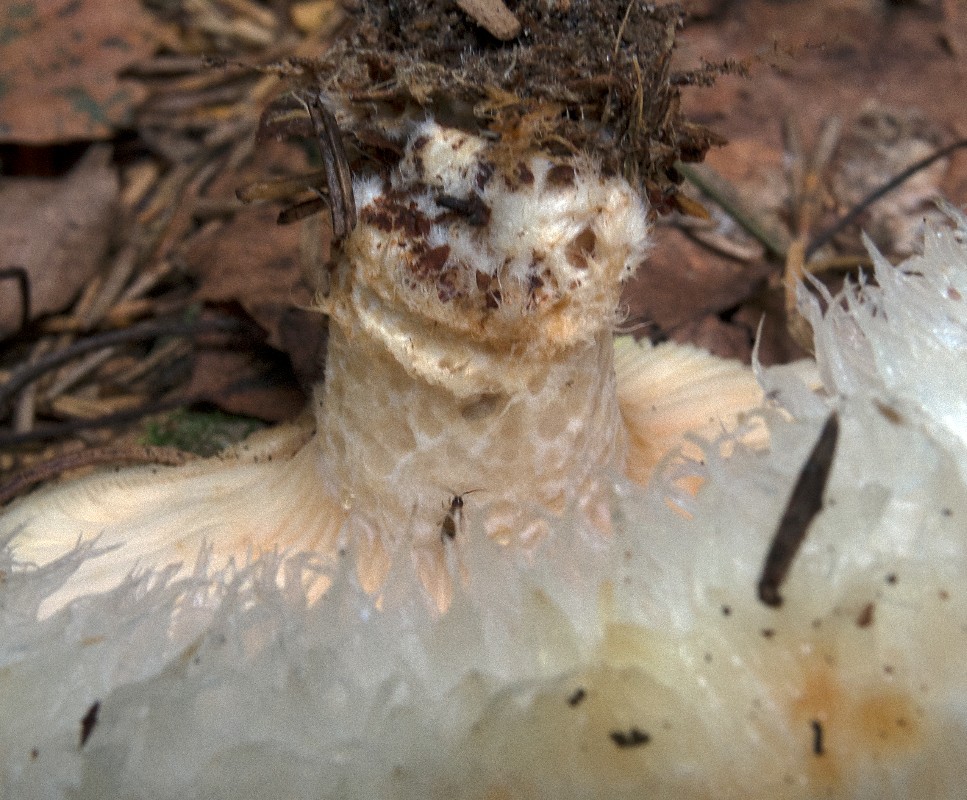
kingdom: Fungi
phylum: Basidiomycota
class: Agaricomycetes
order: Russulales
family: Russulaceae
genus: Lactarius
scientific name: Lactarius aquizonatus
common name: vandbæltet mælkehat
